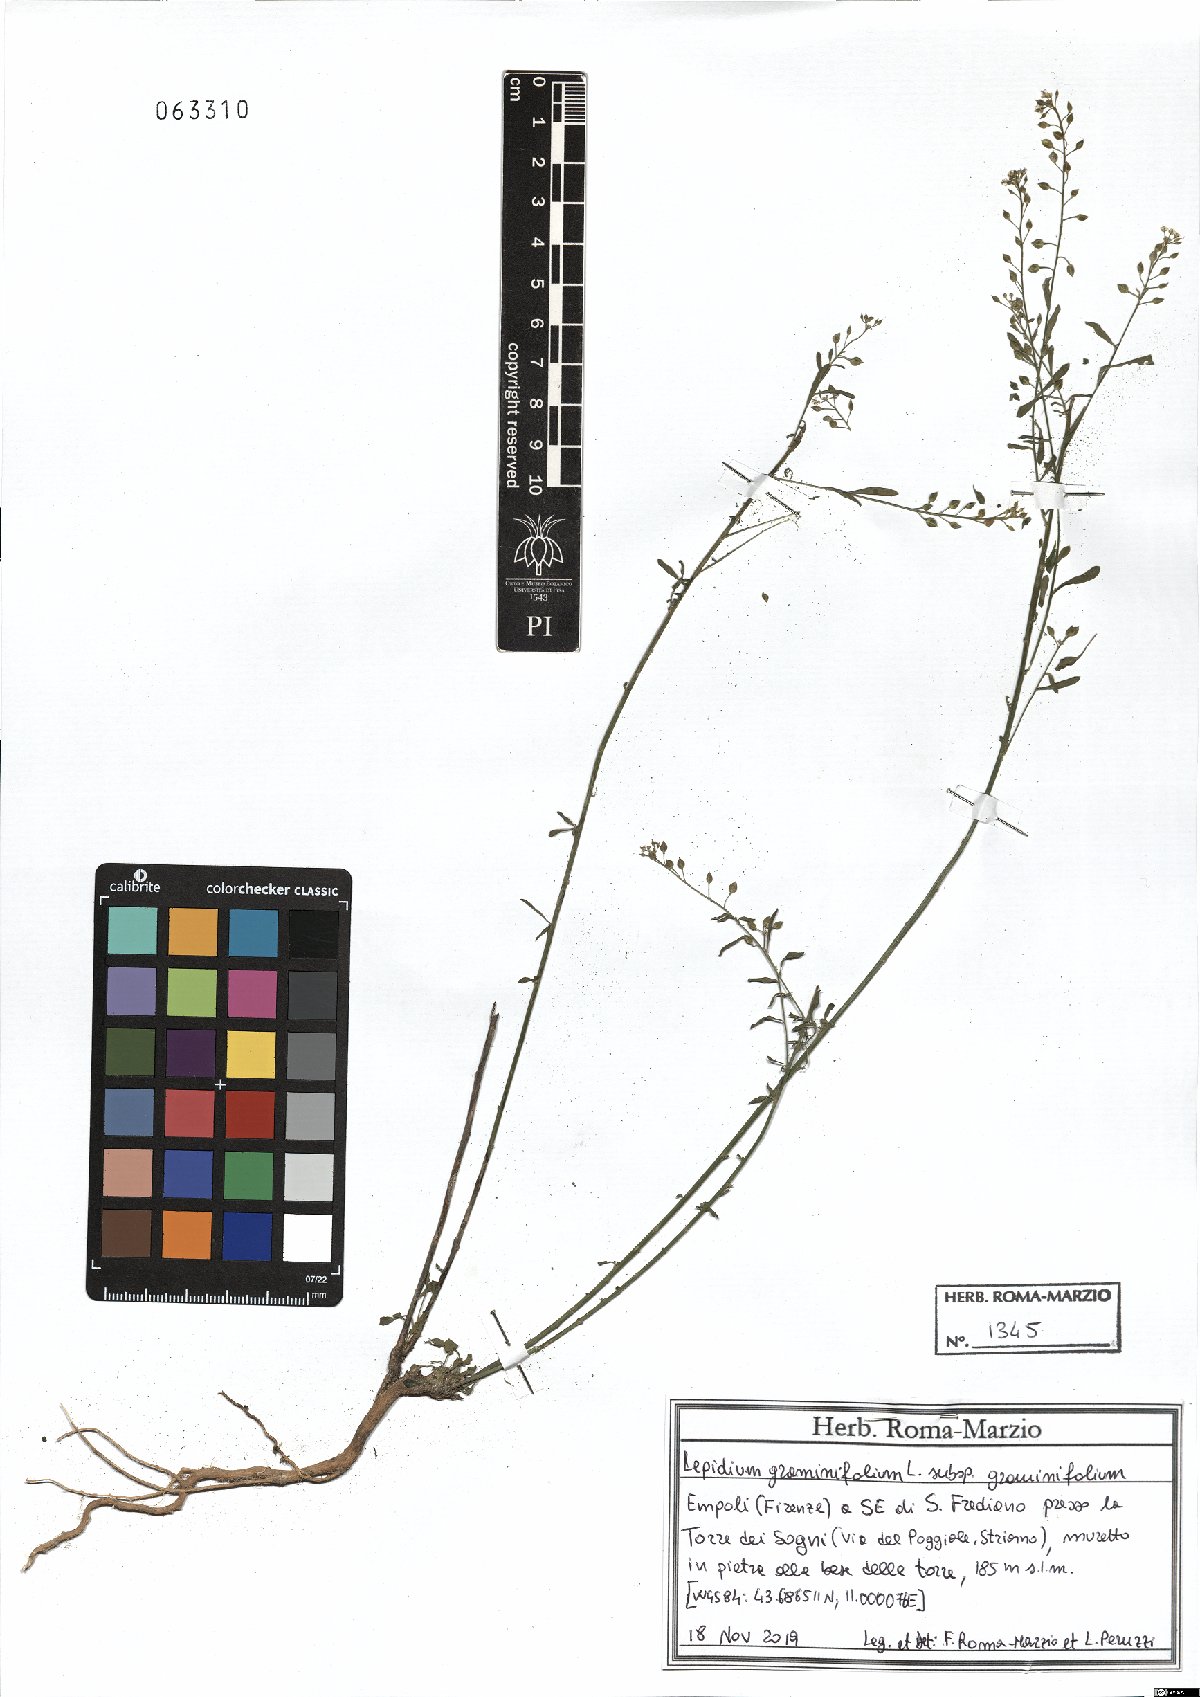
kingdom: Plantae
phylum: Tracheophyta
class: Magnoliopsida
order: Brassicales
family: Brassicaceae
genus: Lepidium
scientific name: Lepidium graminifolium
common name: Tall pepperwort
